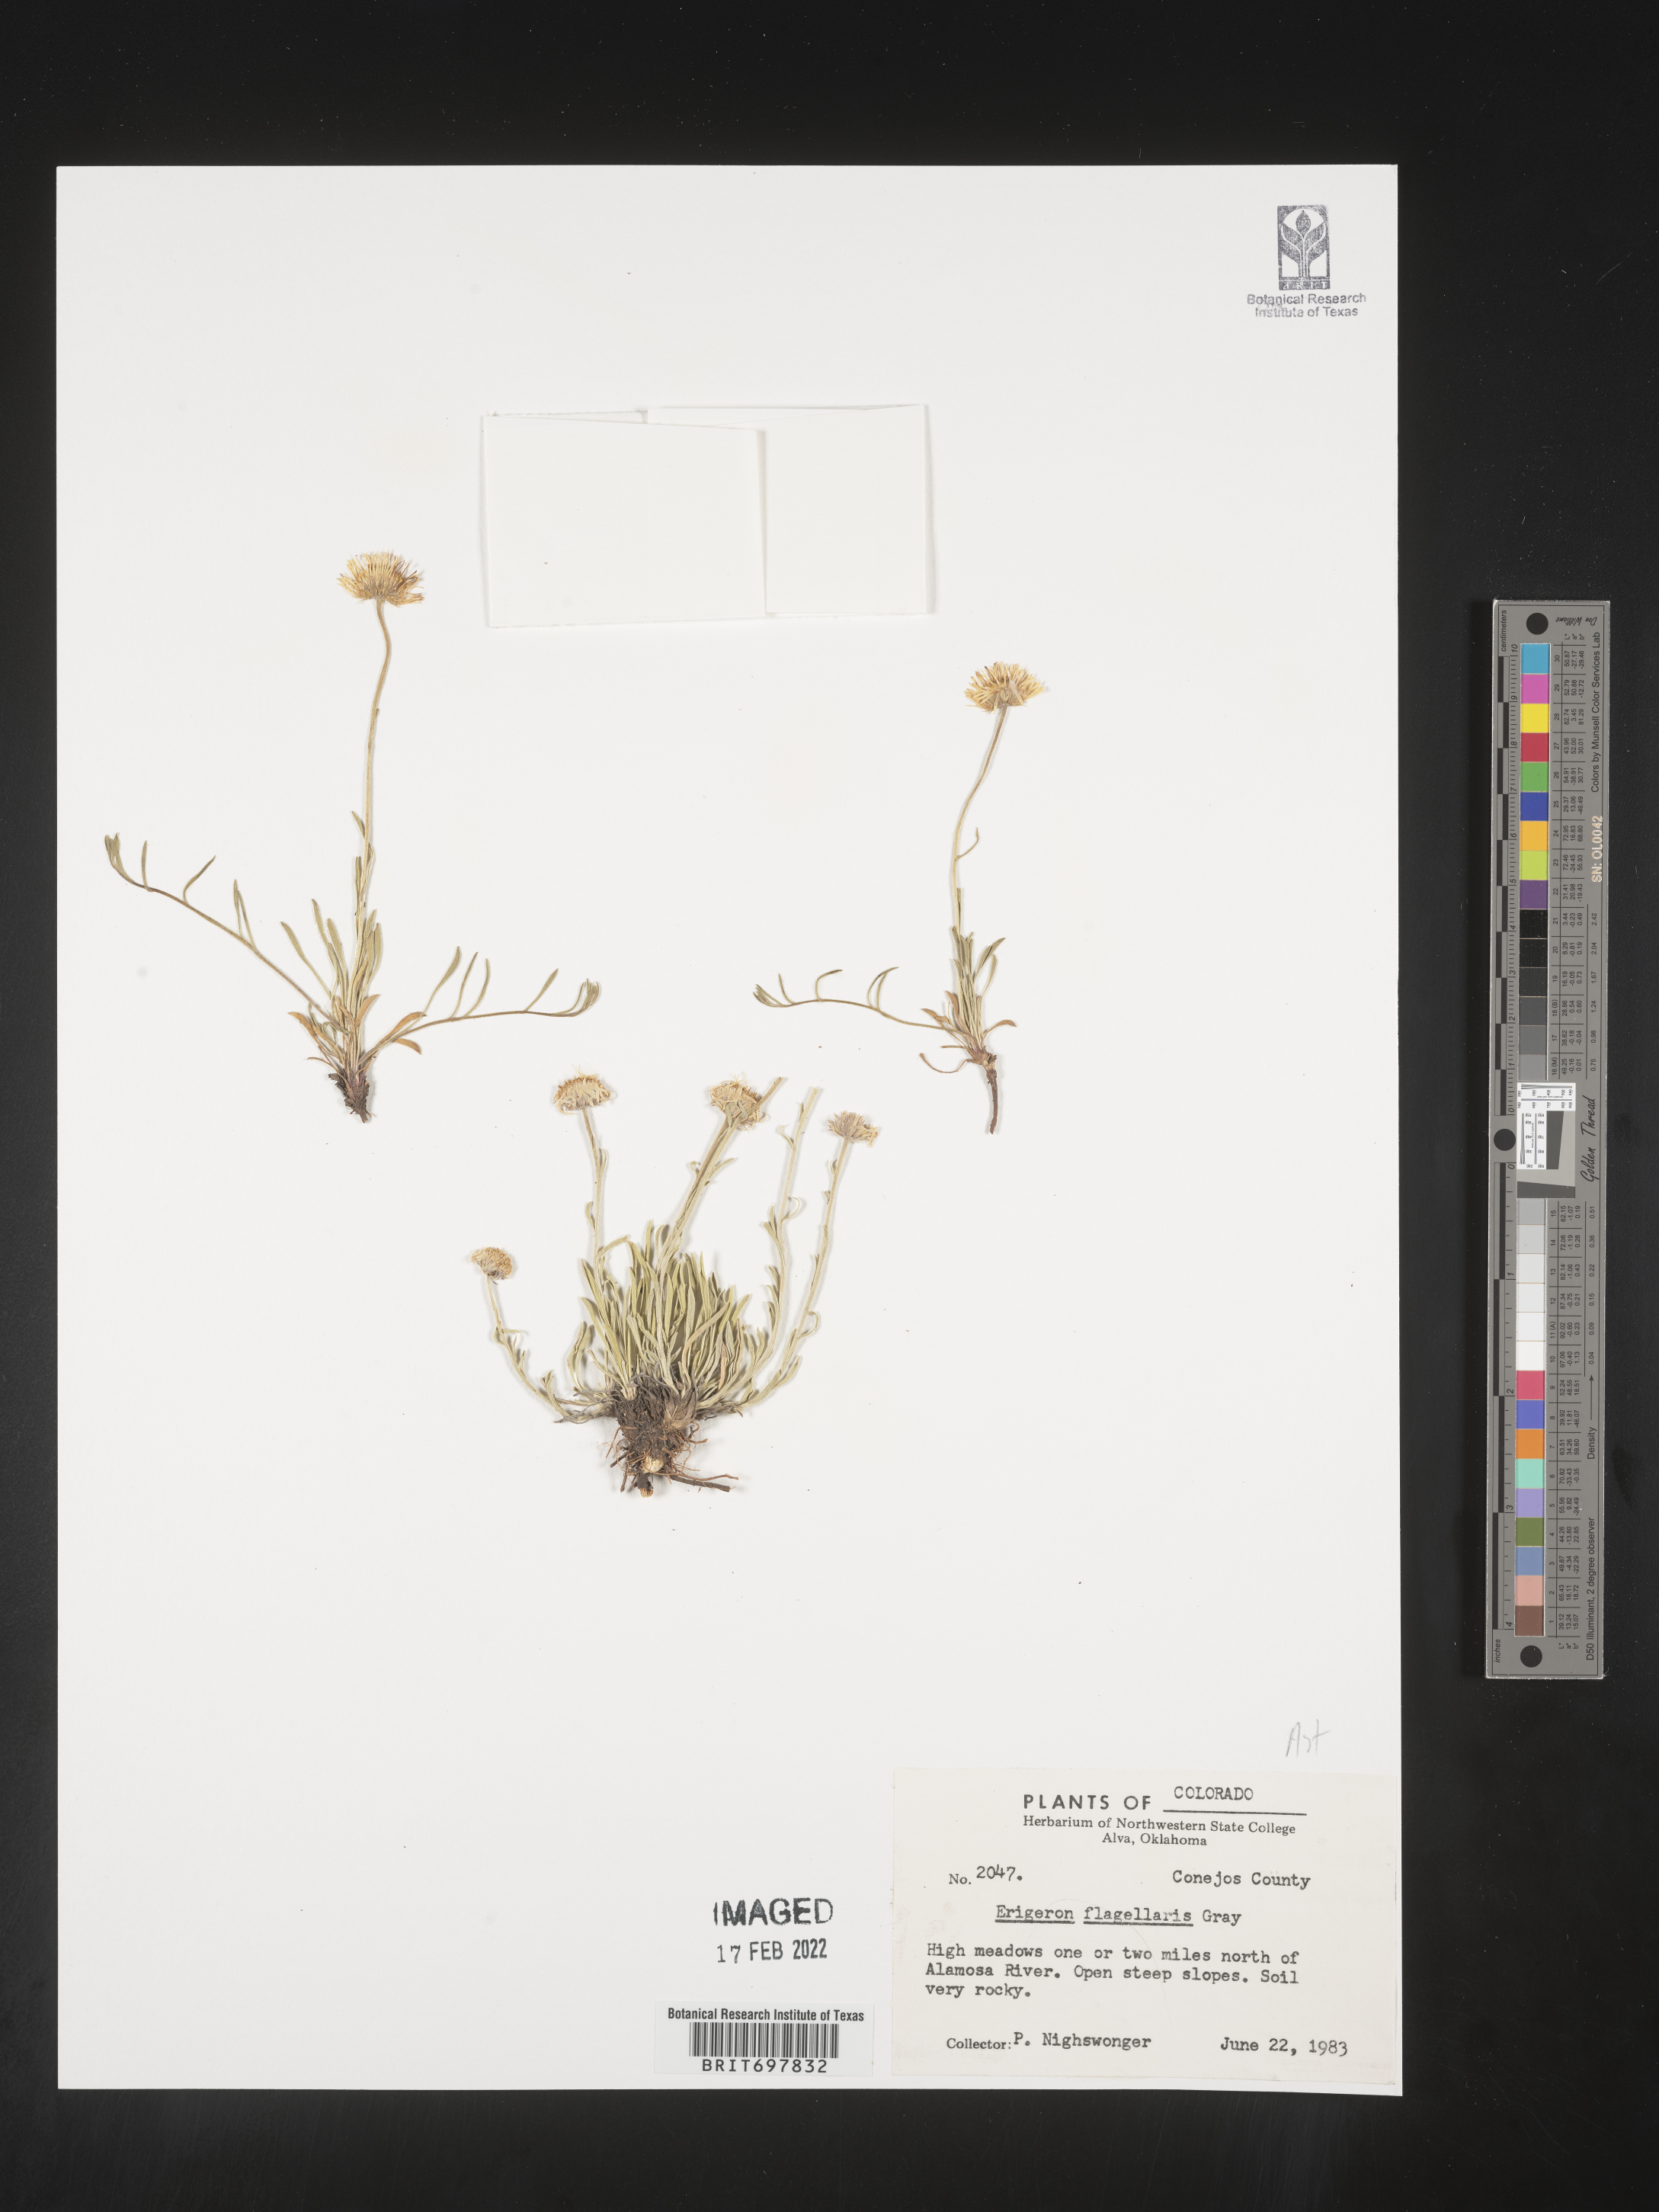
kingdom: Plantae
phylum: Tracheophyta
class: Magnoliopsida
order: Asterales
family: Asteraceae
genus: Erigeron
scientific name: Erigeron flagellaris
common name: Running fleabane
